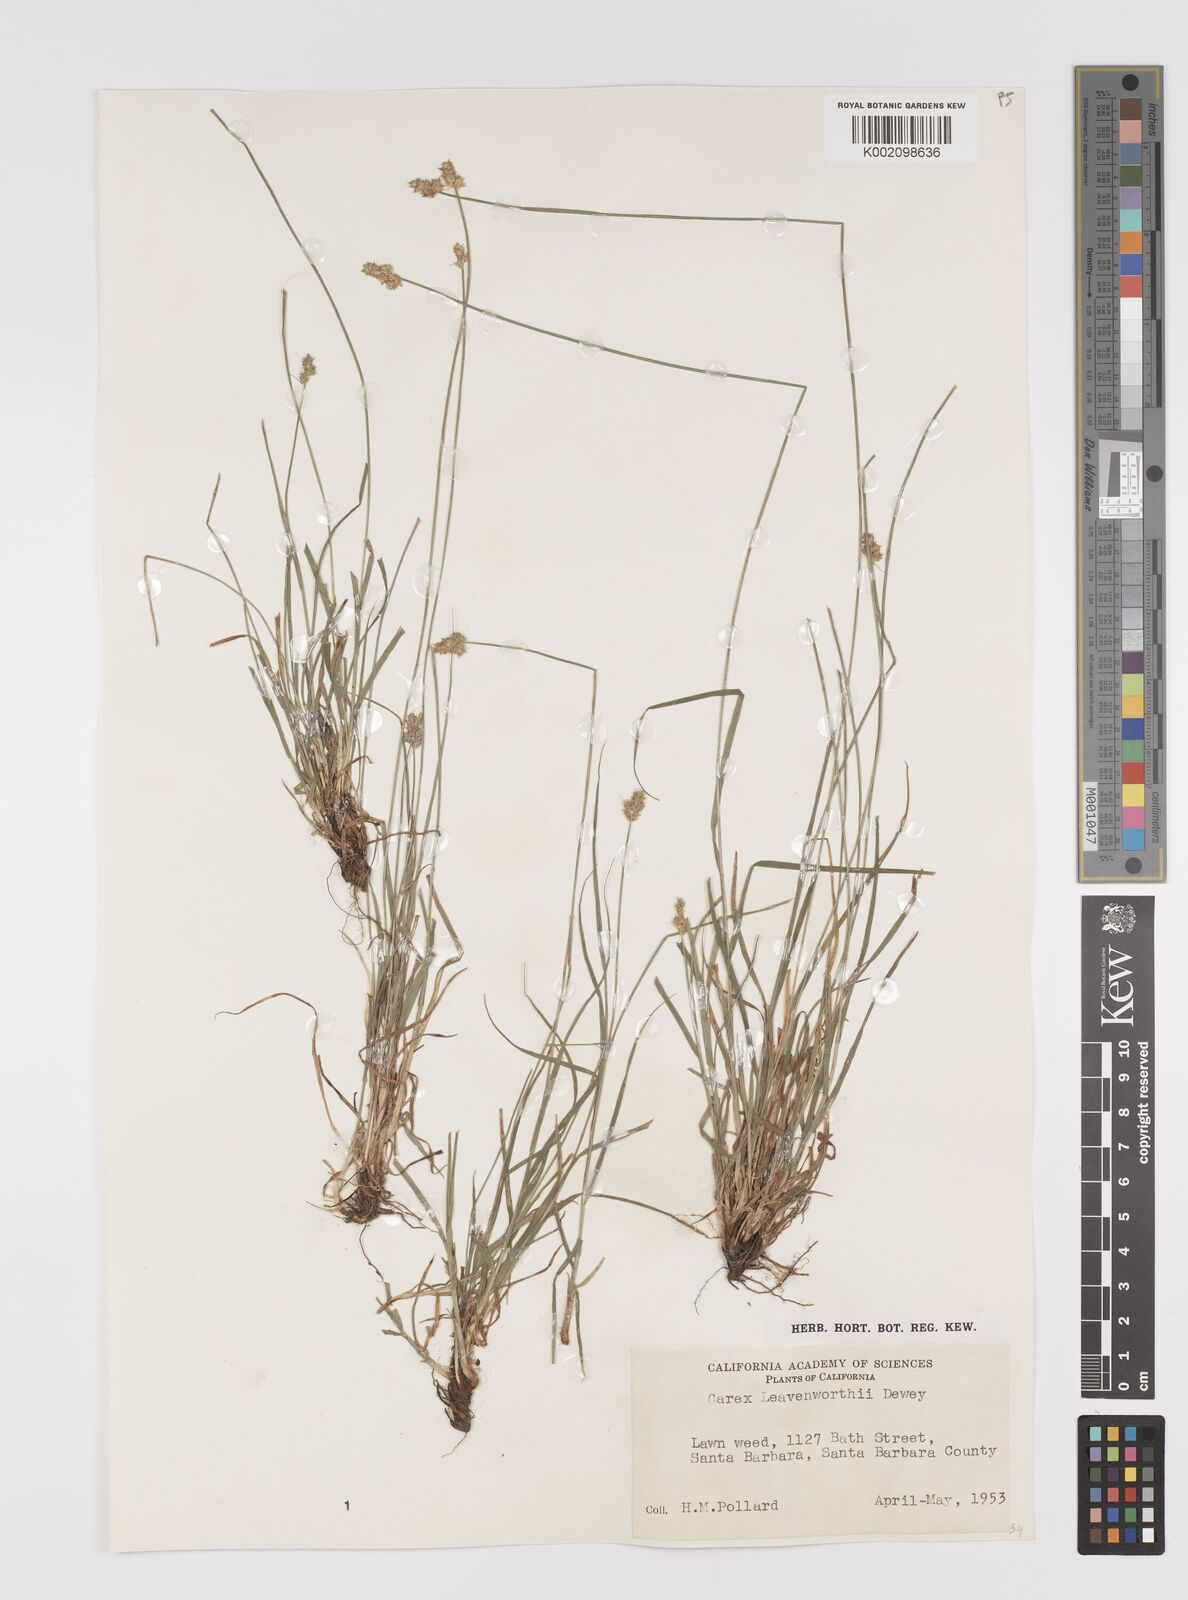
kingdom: Plantae
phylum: Tracheophyta
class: Liliopsida
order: Poales
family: Cyperaceae
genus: Carex
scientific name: Carex leavenworthii
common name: Leavenworth's bracted sedge
